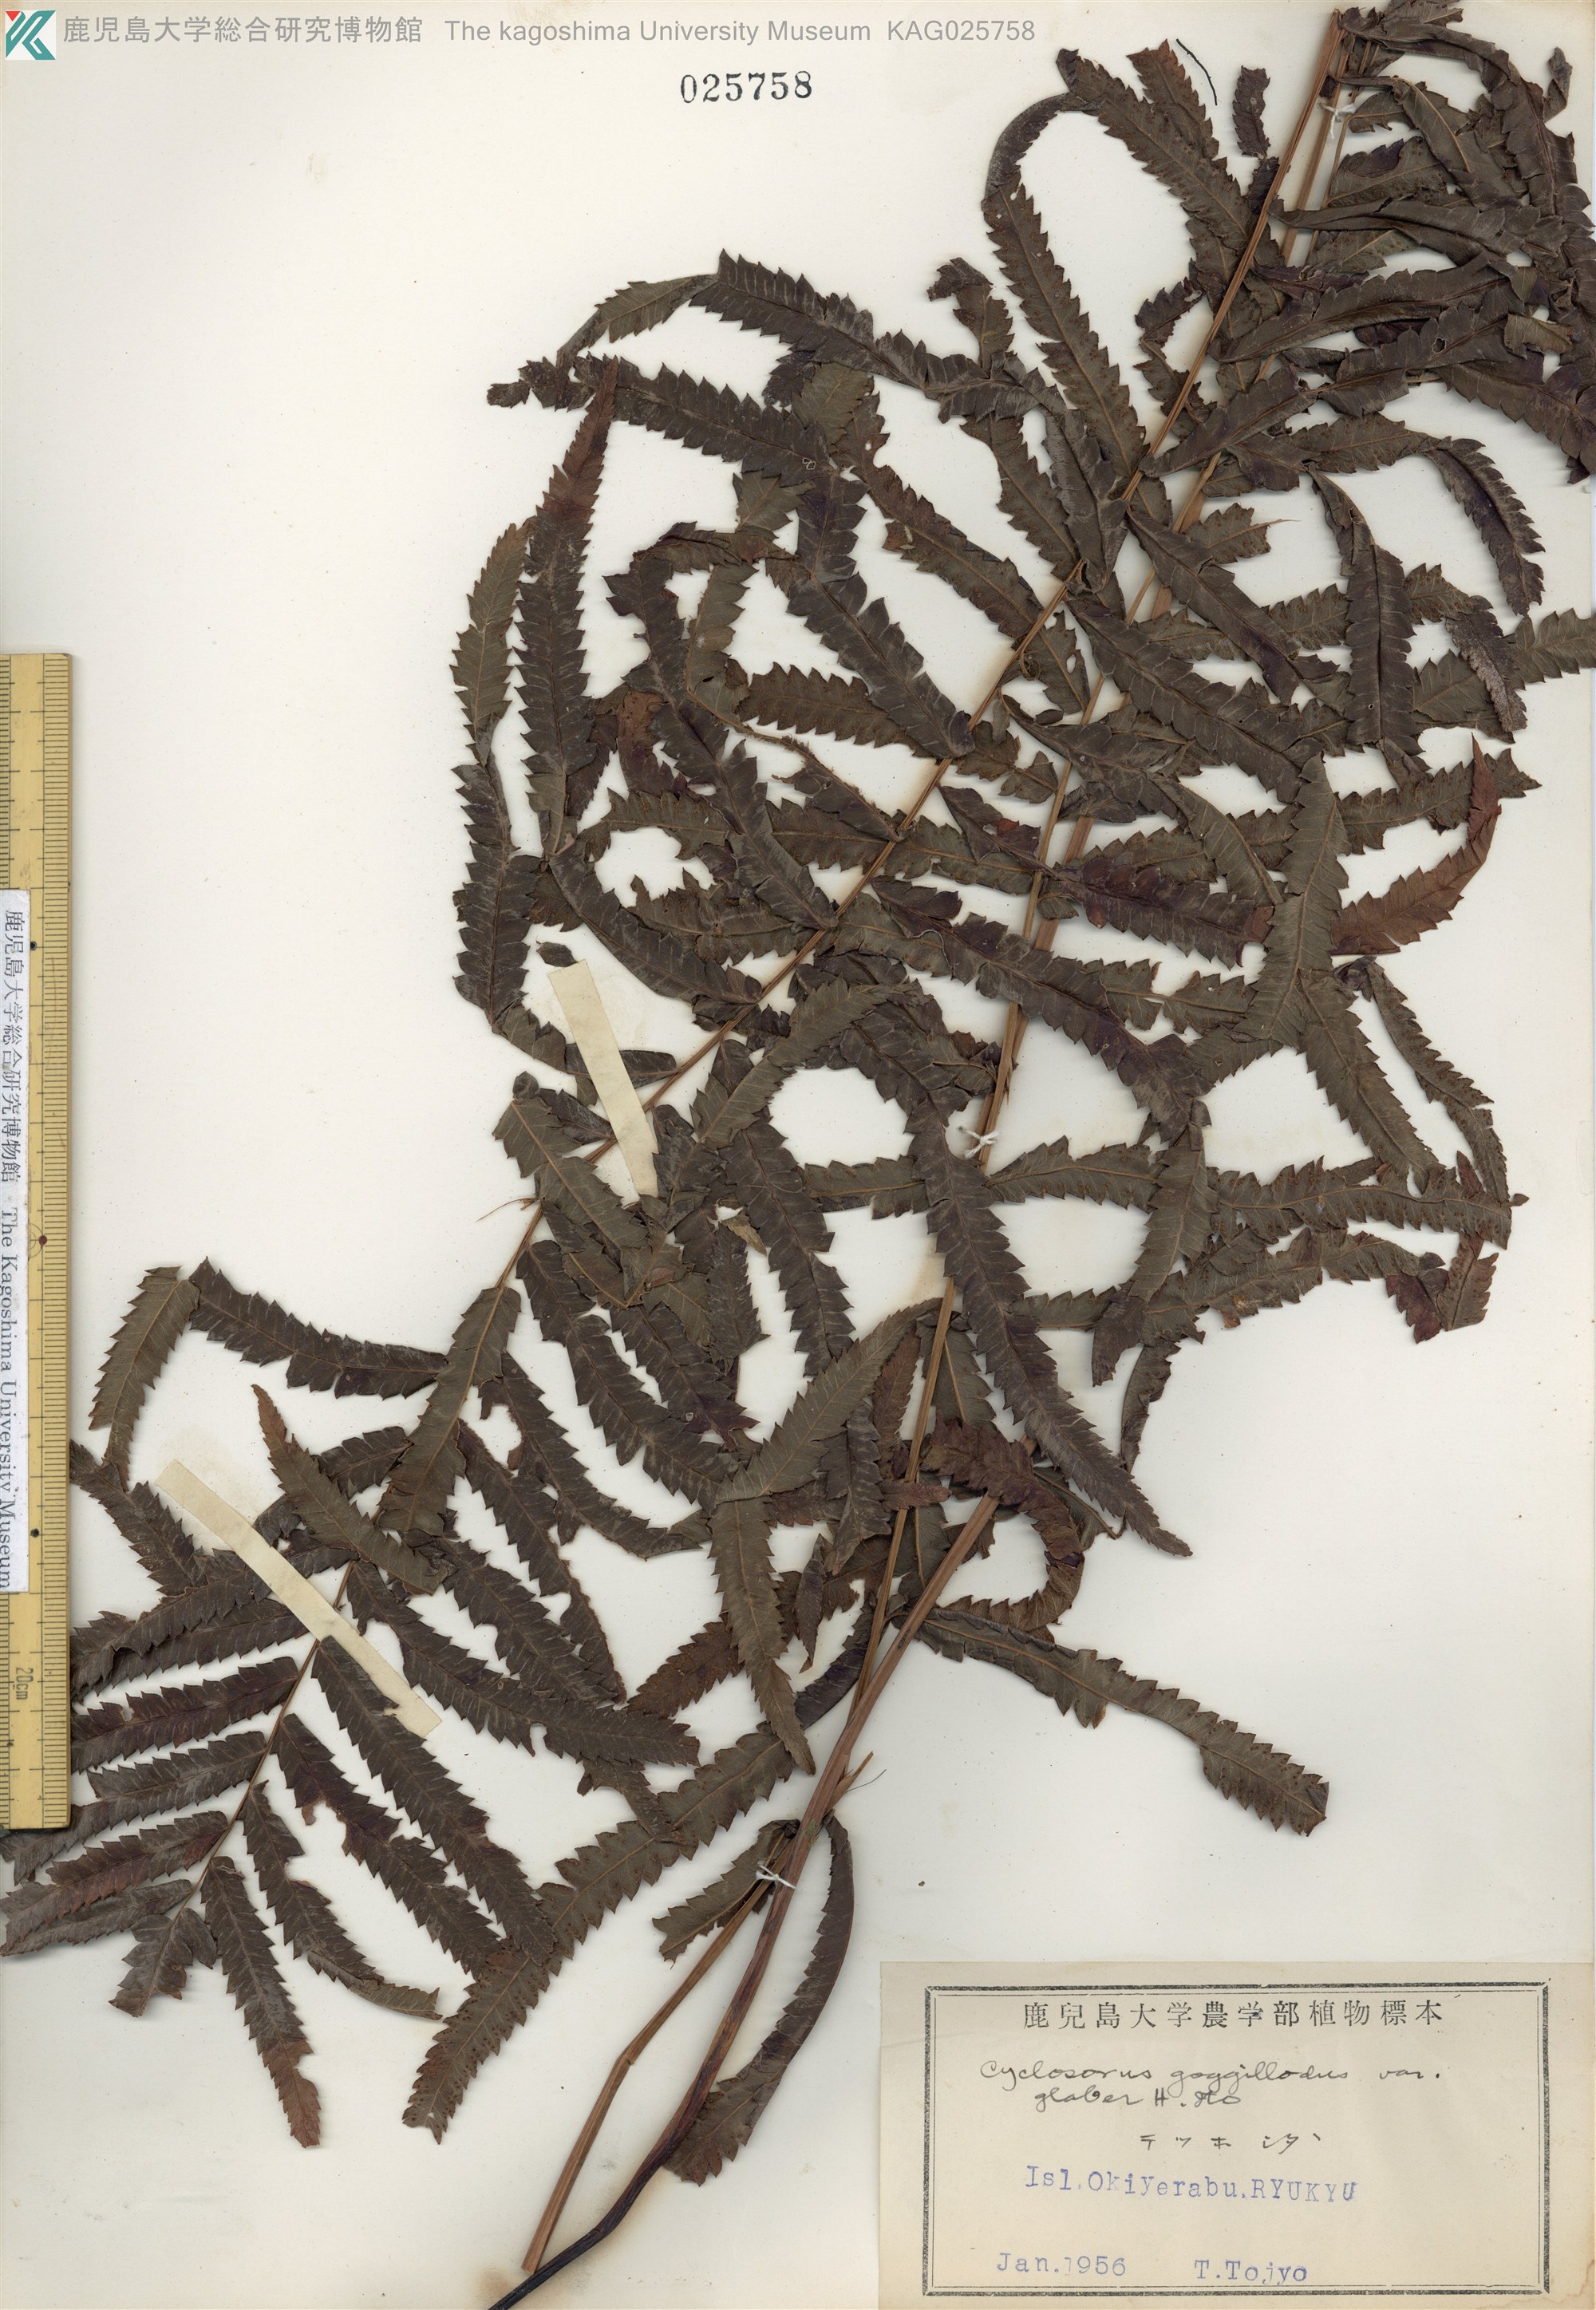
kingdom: Plantae
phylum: Tracheophyta
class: Polypodiopsida
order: Polypodiales
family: Thelypteridaceae
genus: Cyclosorus
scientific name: Cyclosorus interruptus
